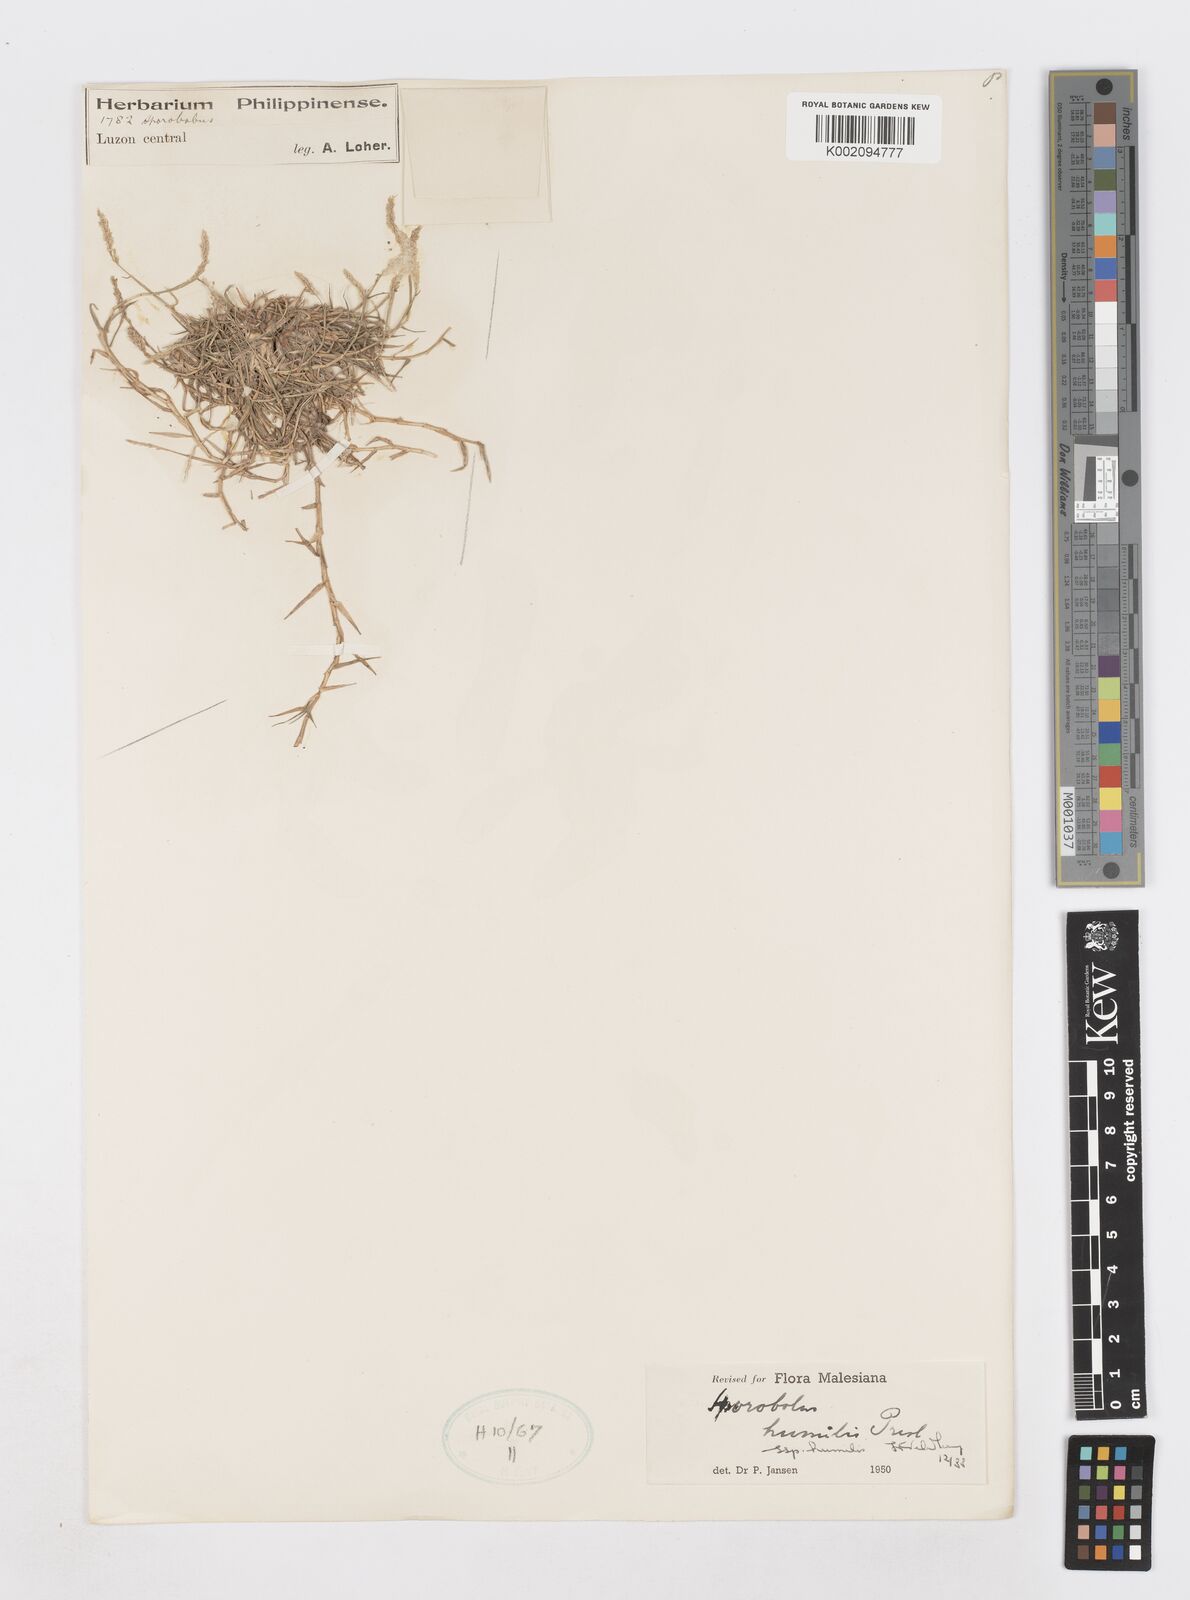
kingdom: Plantae
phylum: Tracheophyta
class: Liliopsida
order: Poales
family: Poaceae
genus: Sporobolus
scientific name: Sporobolus humilis
